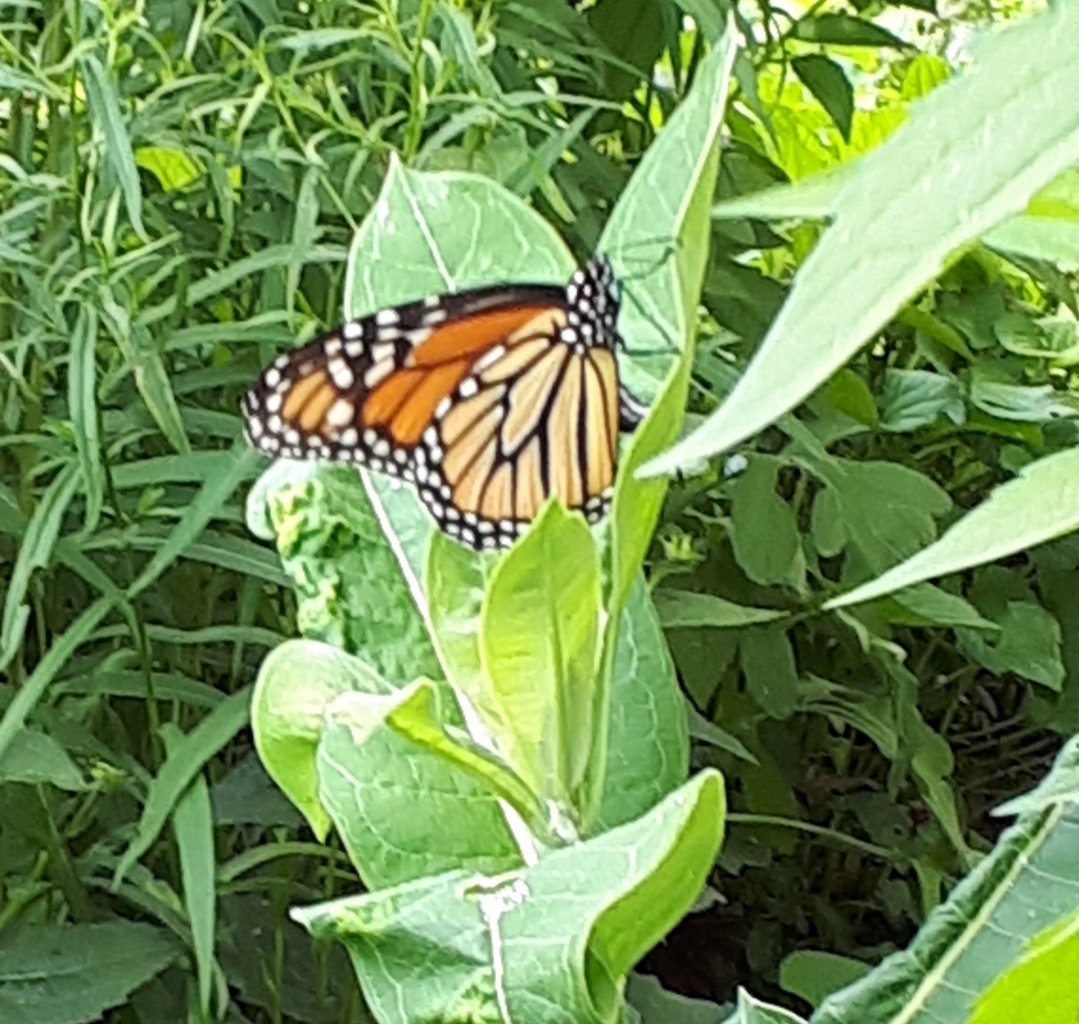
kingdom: Animalia
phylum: Arthropoda
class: Insecta
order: Lepidoptera
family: Nymphalidae
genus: Danaus
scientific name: Danaus plexippus
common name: Monarch
